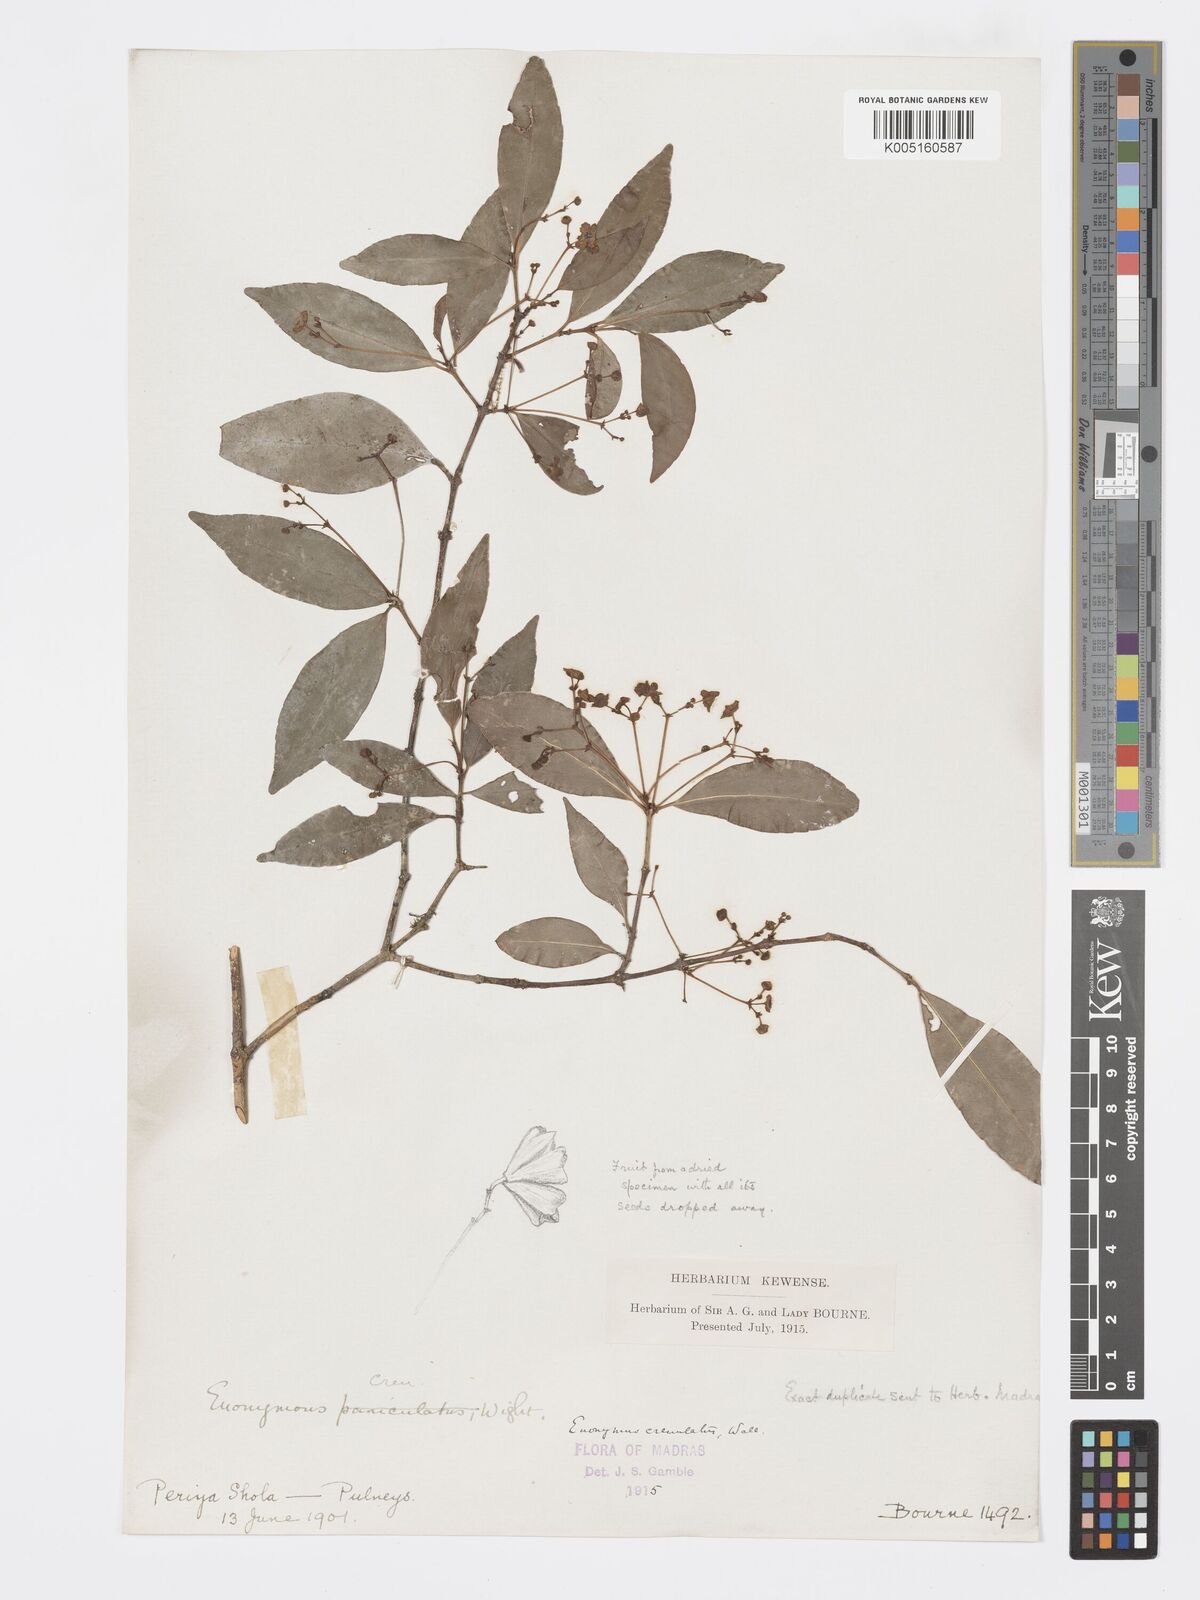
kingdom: Plantae
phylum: Tracheophyta
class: Magnoliopsida
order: Celastrales
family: Celastraceae
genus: Euonymus
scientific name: Euonymus crenulatus
